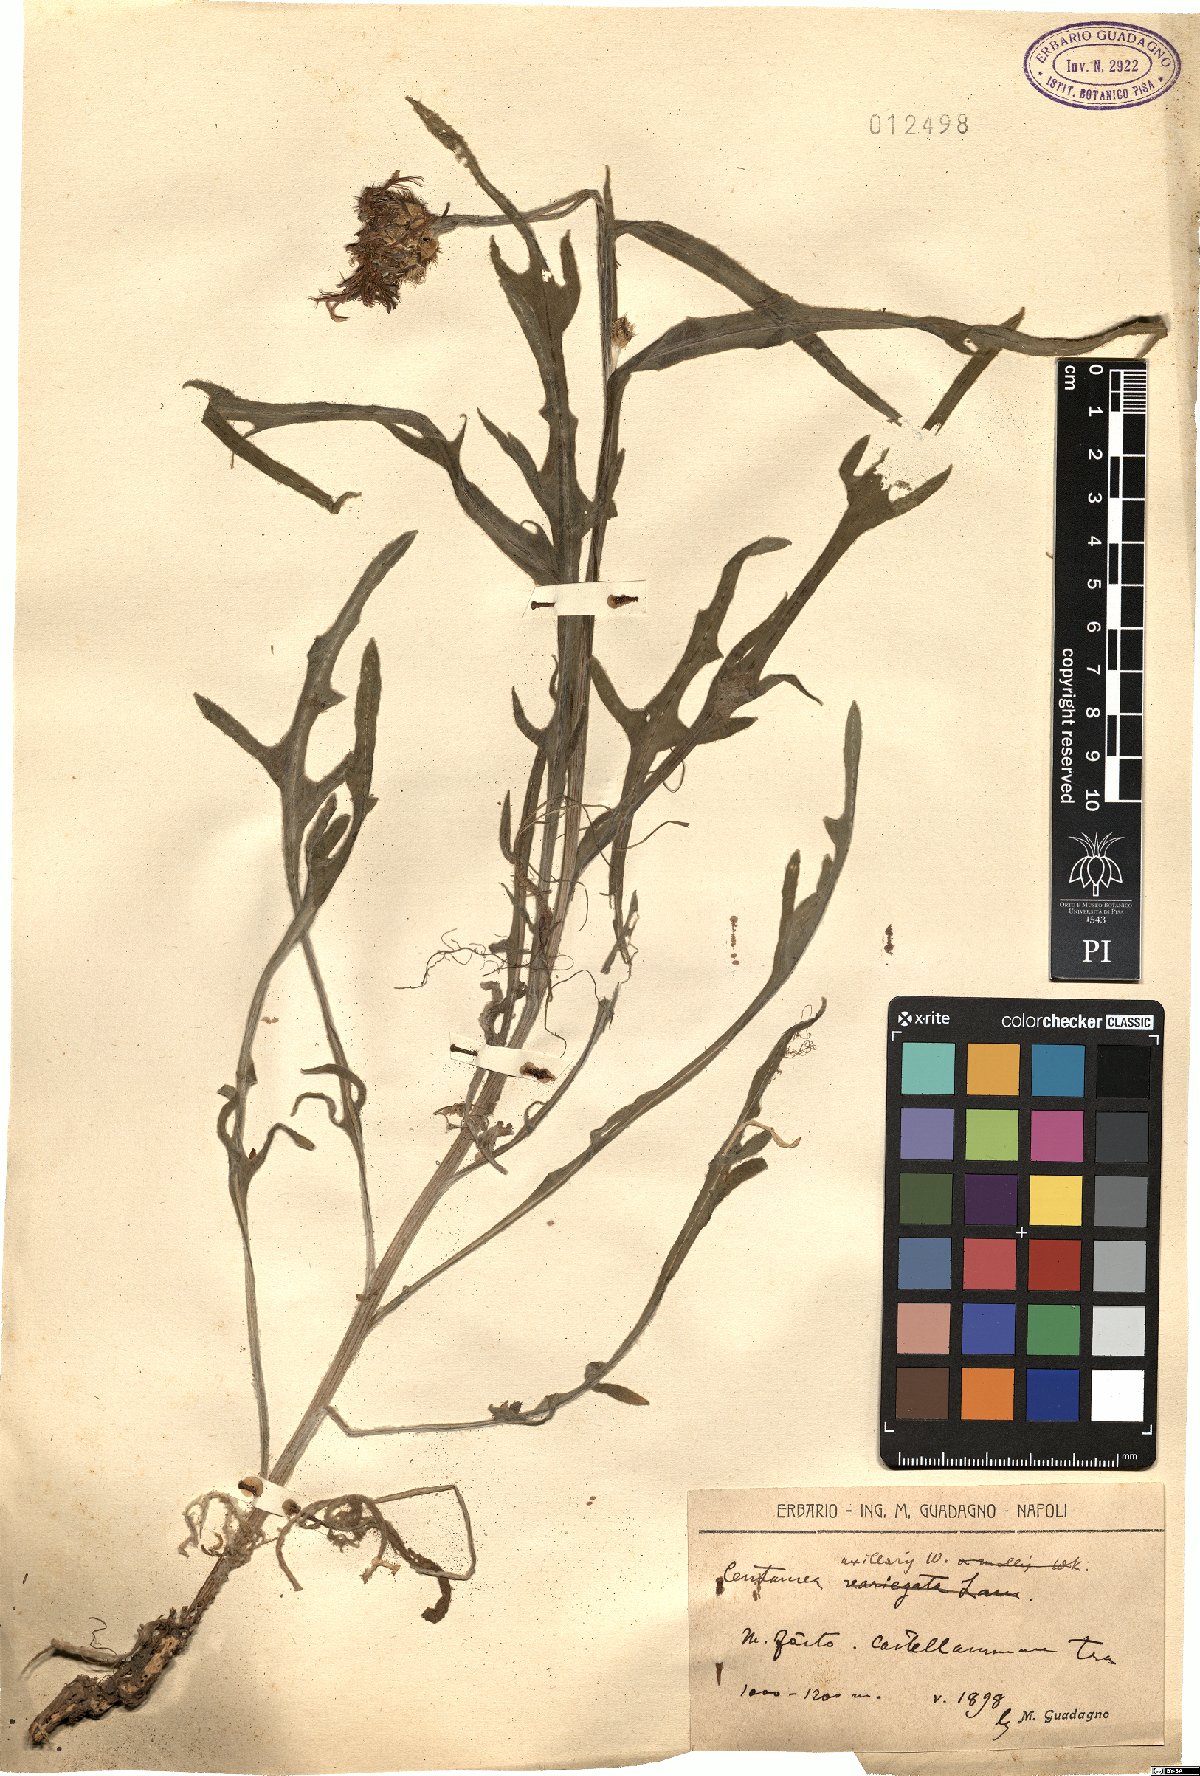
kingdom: Plantae
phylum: Tracheophyta
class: Magnoliopsida
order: Asterales
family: Asteraceae
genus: Centaurea
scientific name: Centaurea triumfettii
